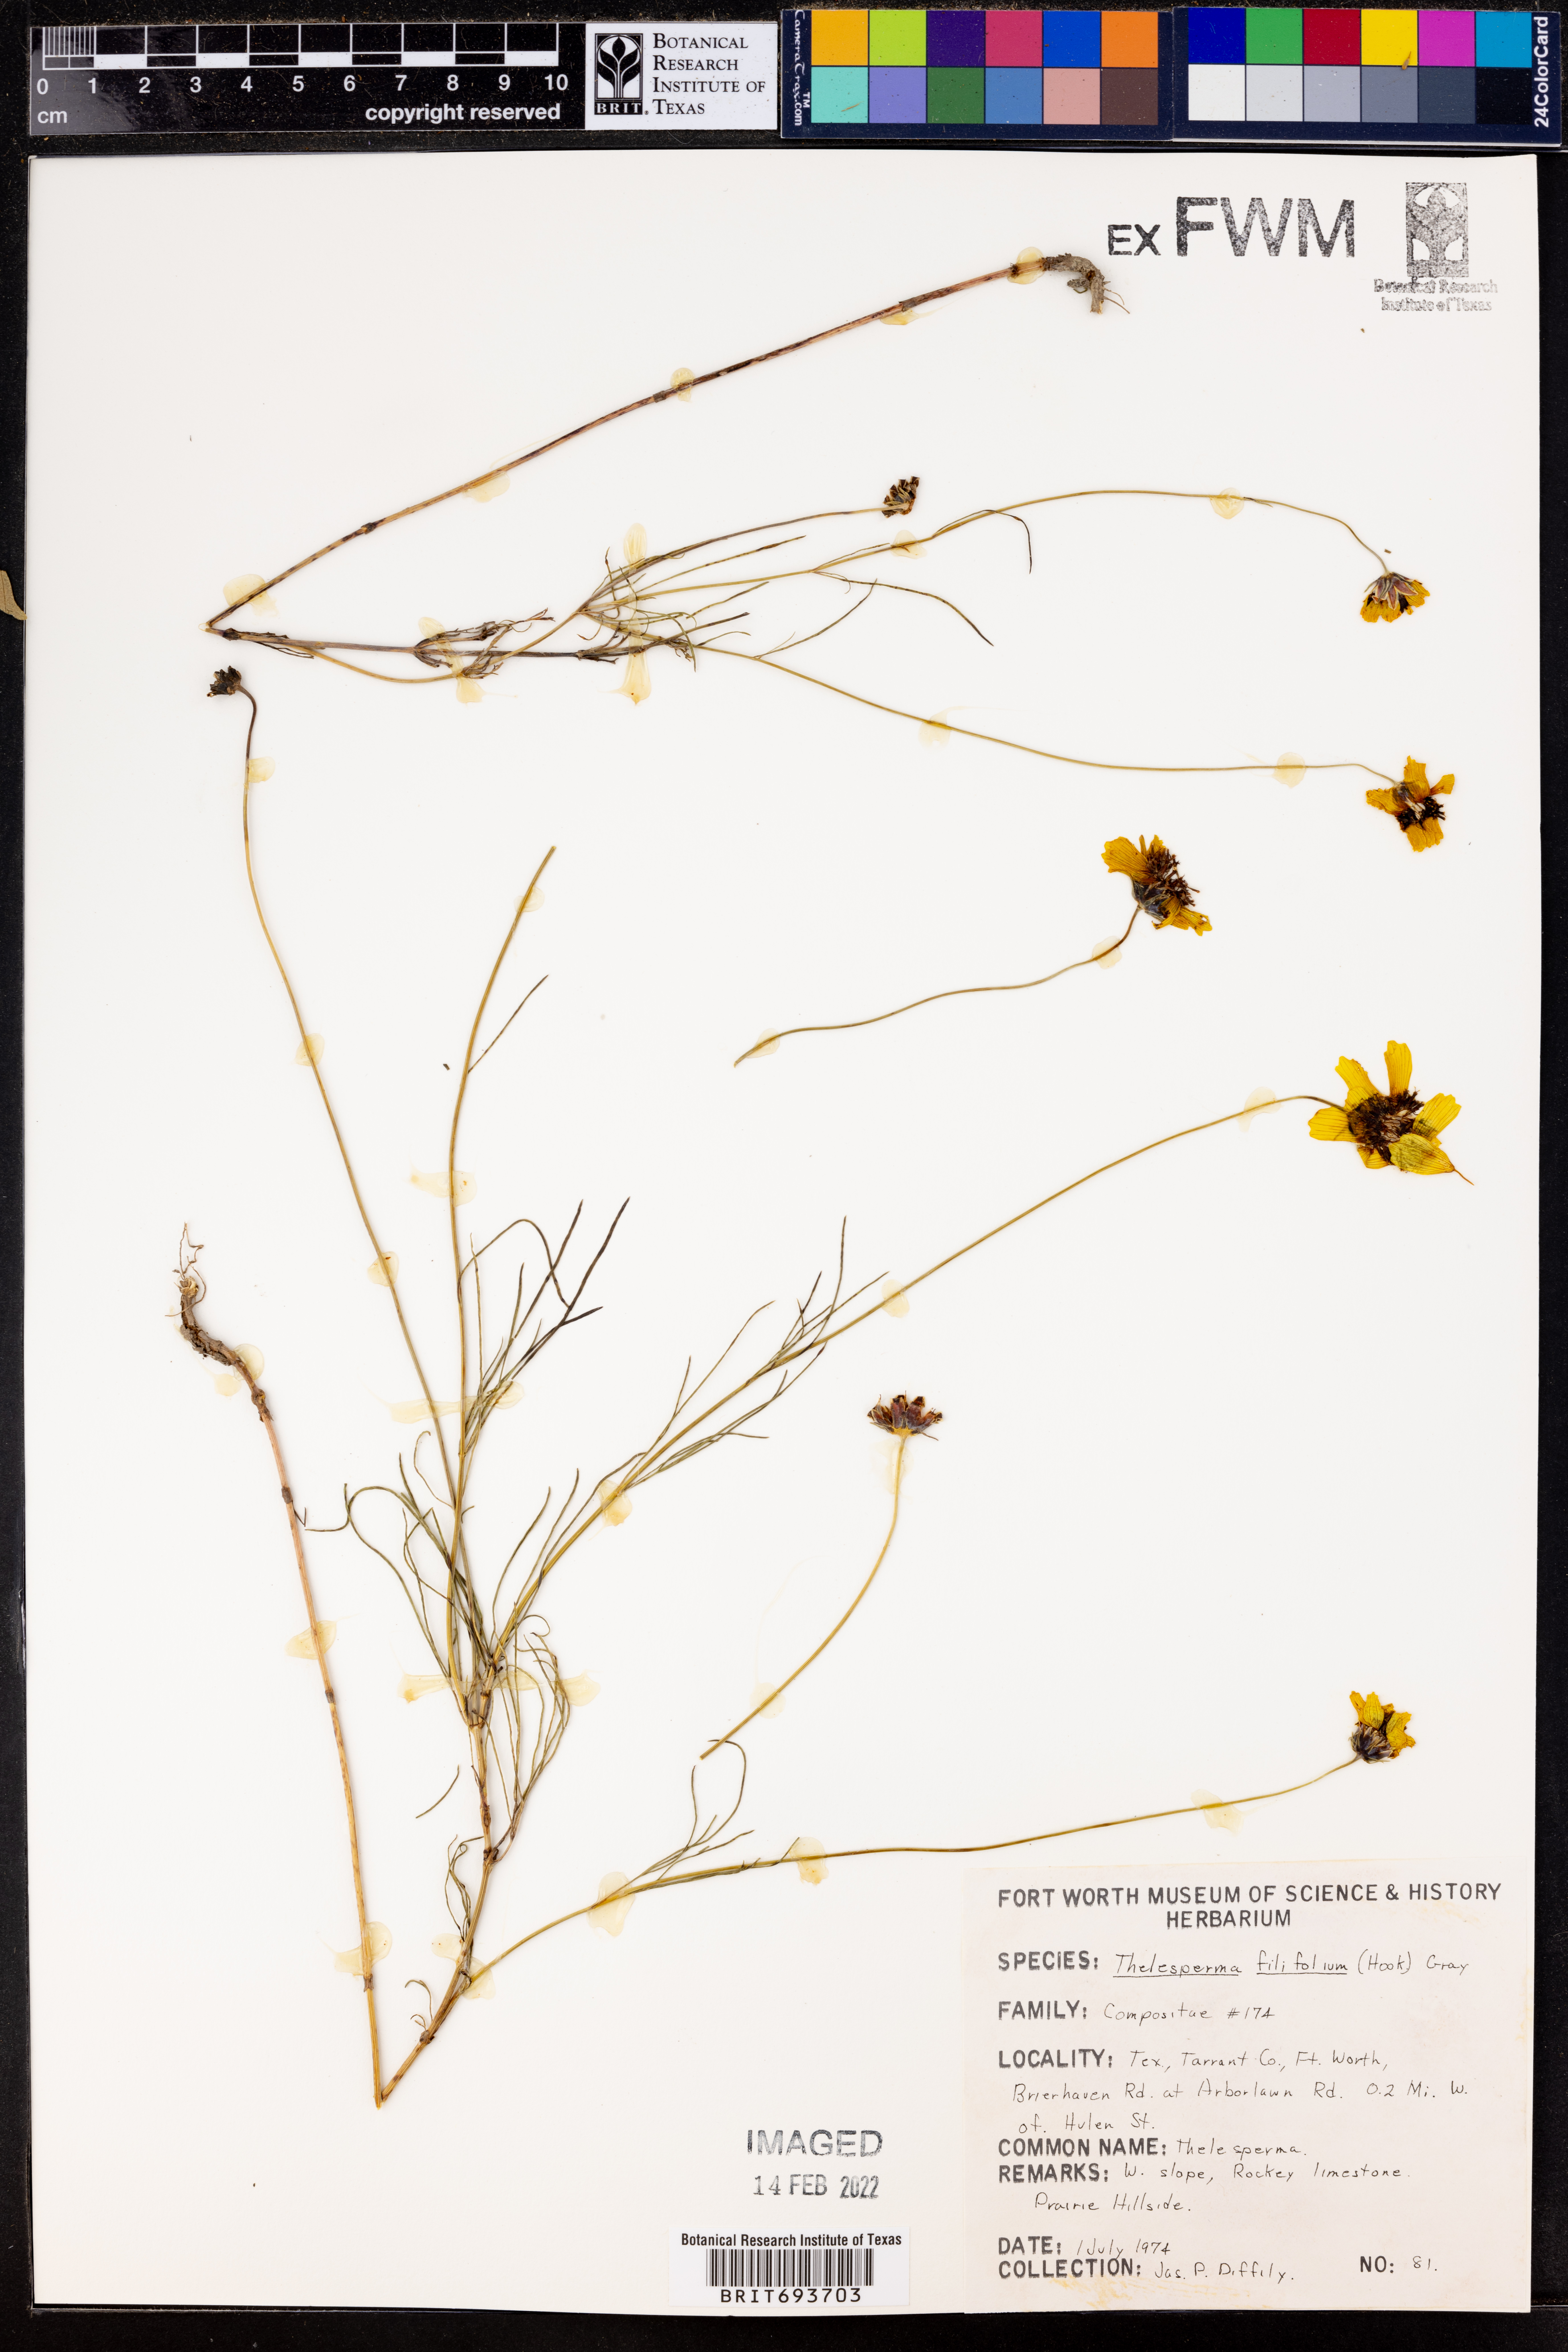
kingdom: Plantae
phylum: Tracheophyta
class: Magnoliopsida
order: Asterales
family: Asteraceae
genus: Thelesperma
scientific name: Thelesperma filifolium
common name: Stiff greenthread
